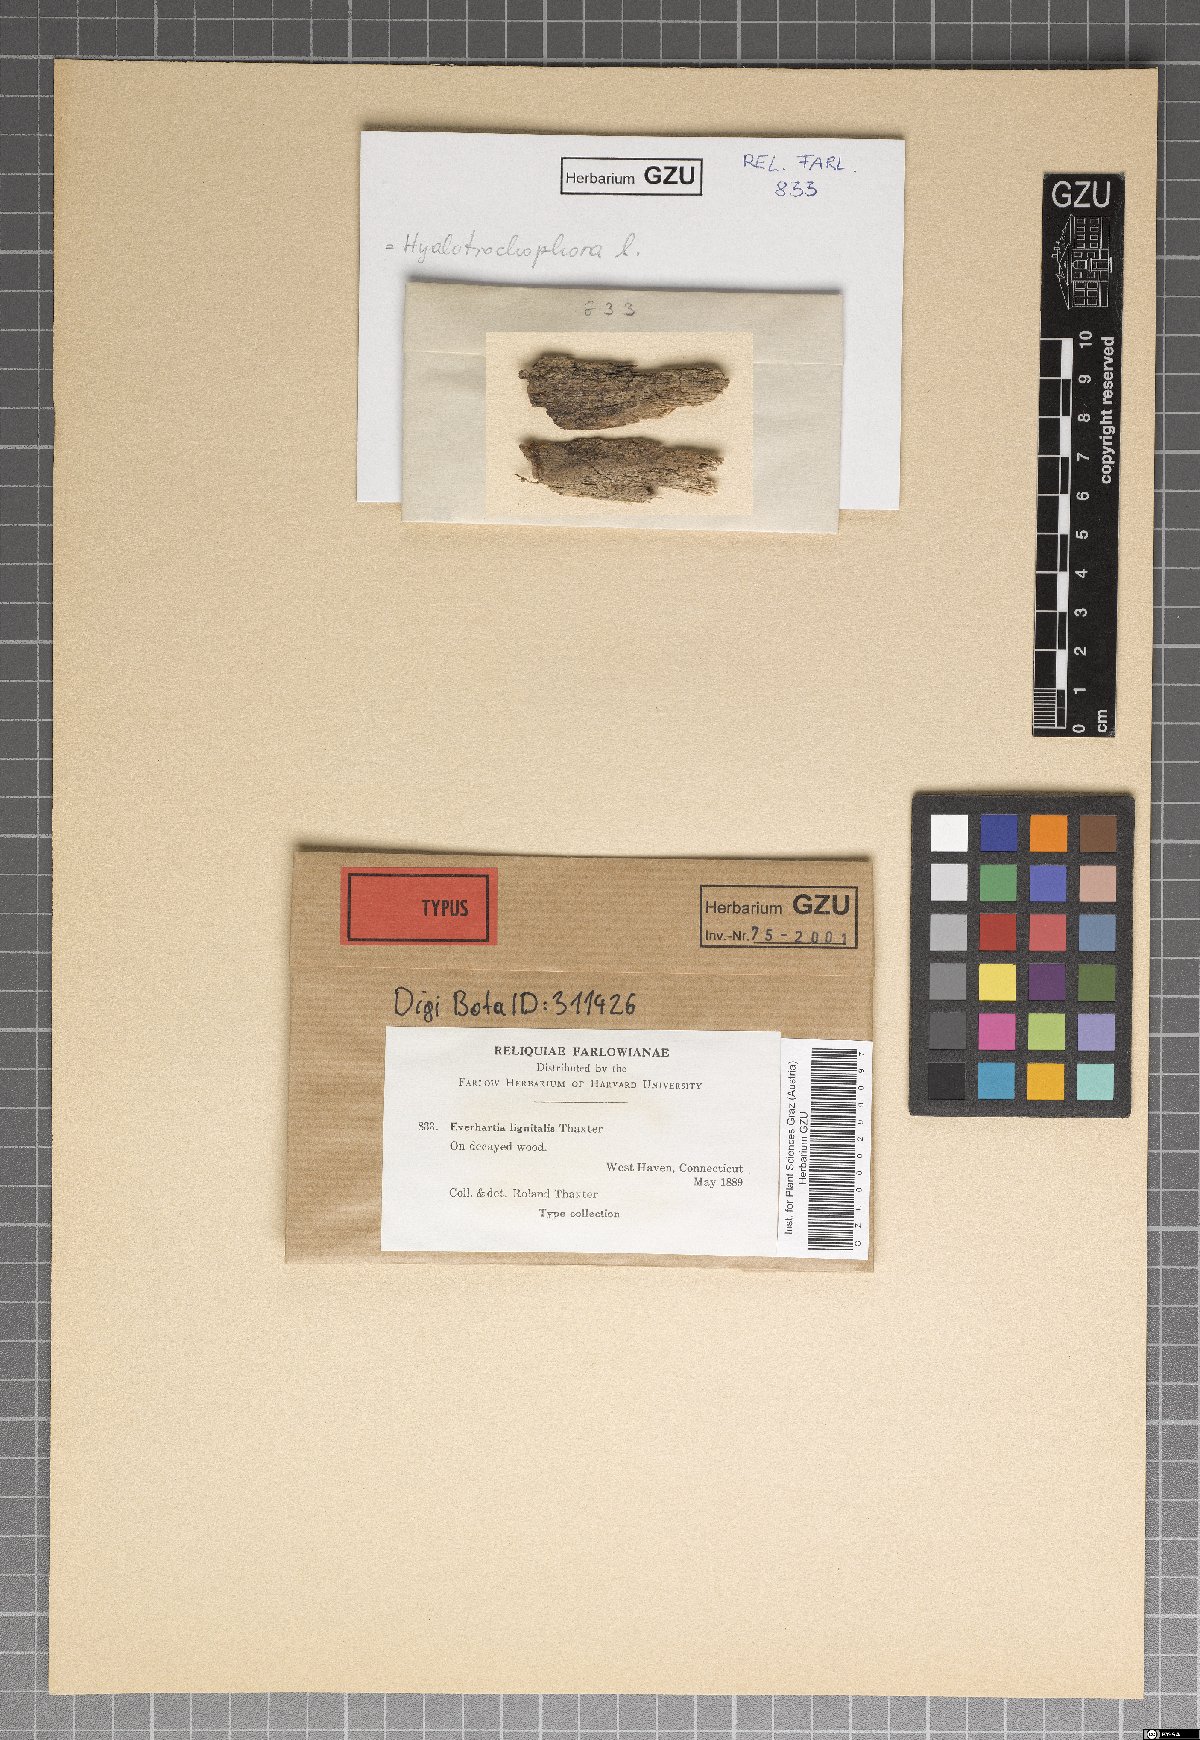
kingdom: Fungi
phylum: Ascomycota
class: Leotiomycetes
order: Helotiales
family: Dermateaceae
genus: Everhartia
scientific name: Everhartia lignatilis
